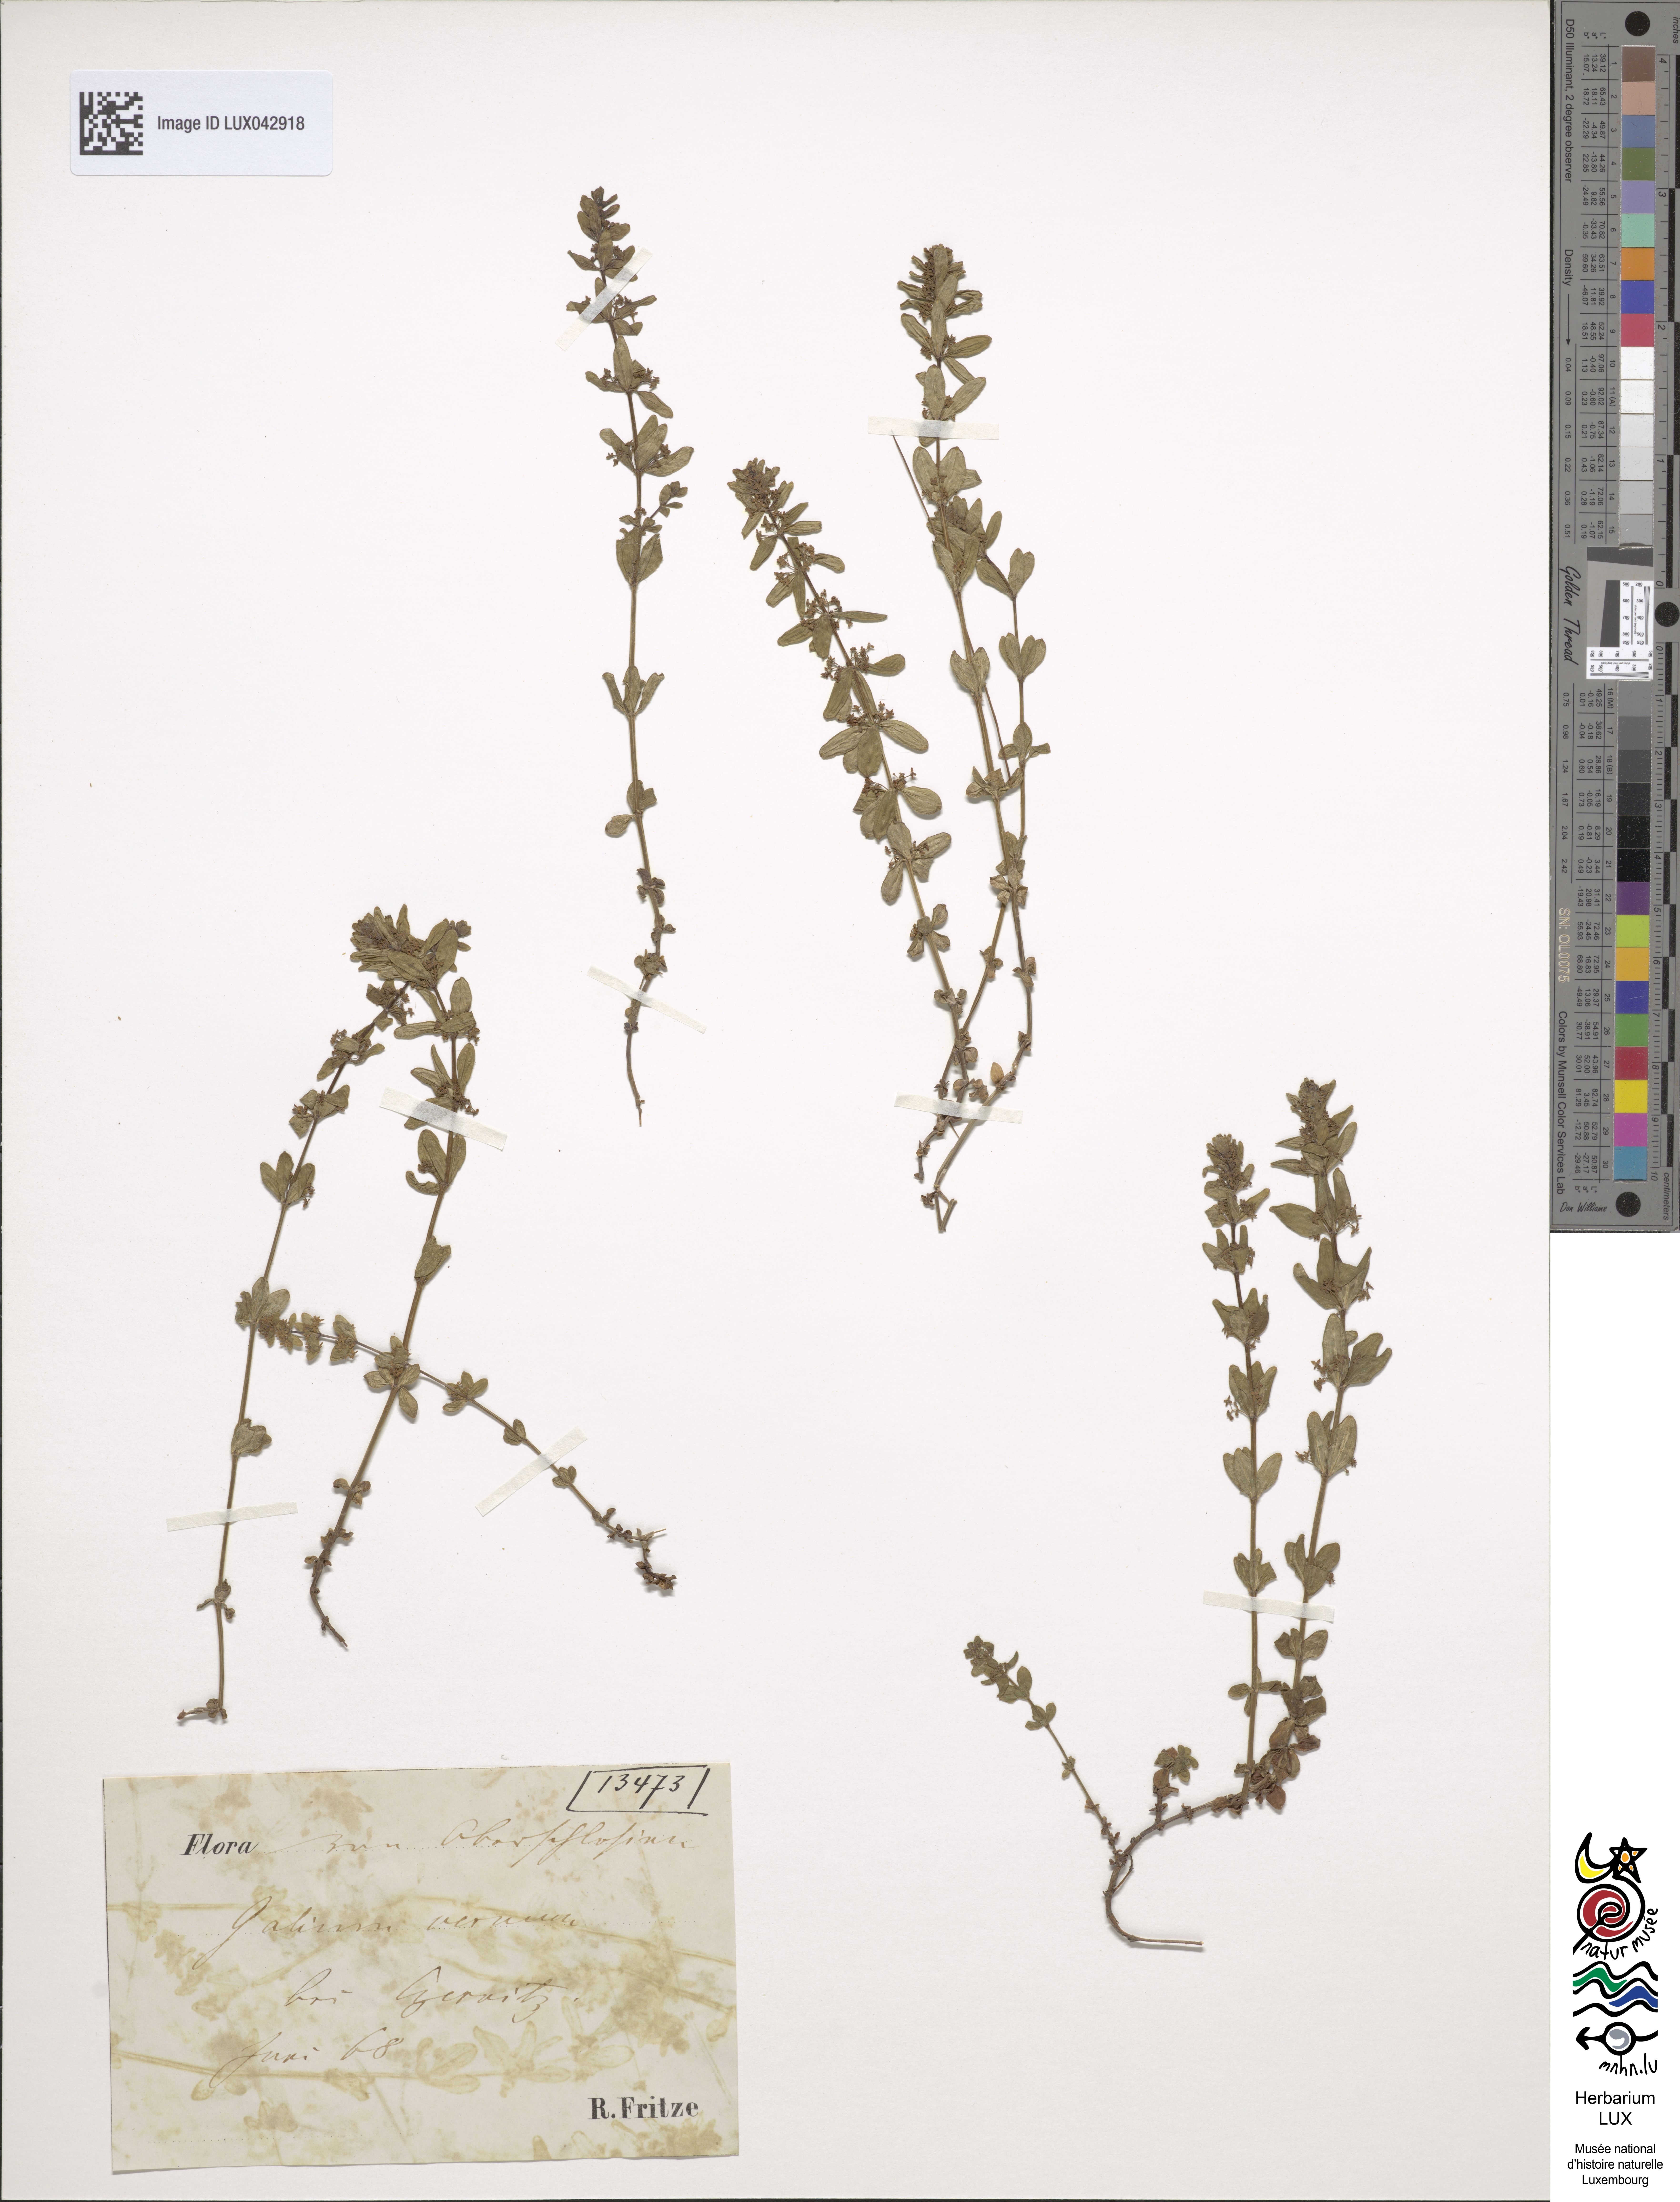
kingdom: Plantae
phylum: Tracheophyta
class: Magnoliopsida
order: Gentianales
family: Rubiaceae
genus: Cruciata
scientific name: Cruciata glabra
